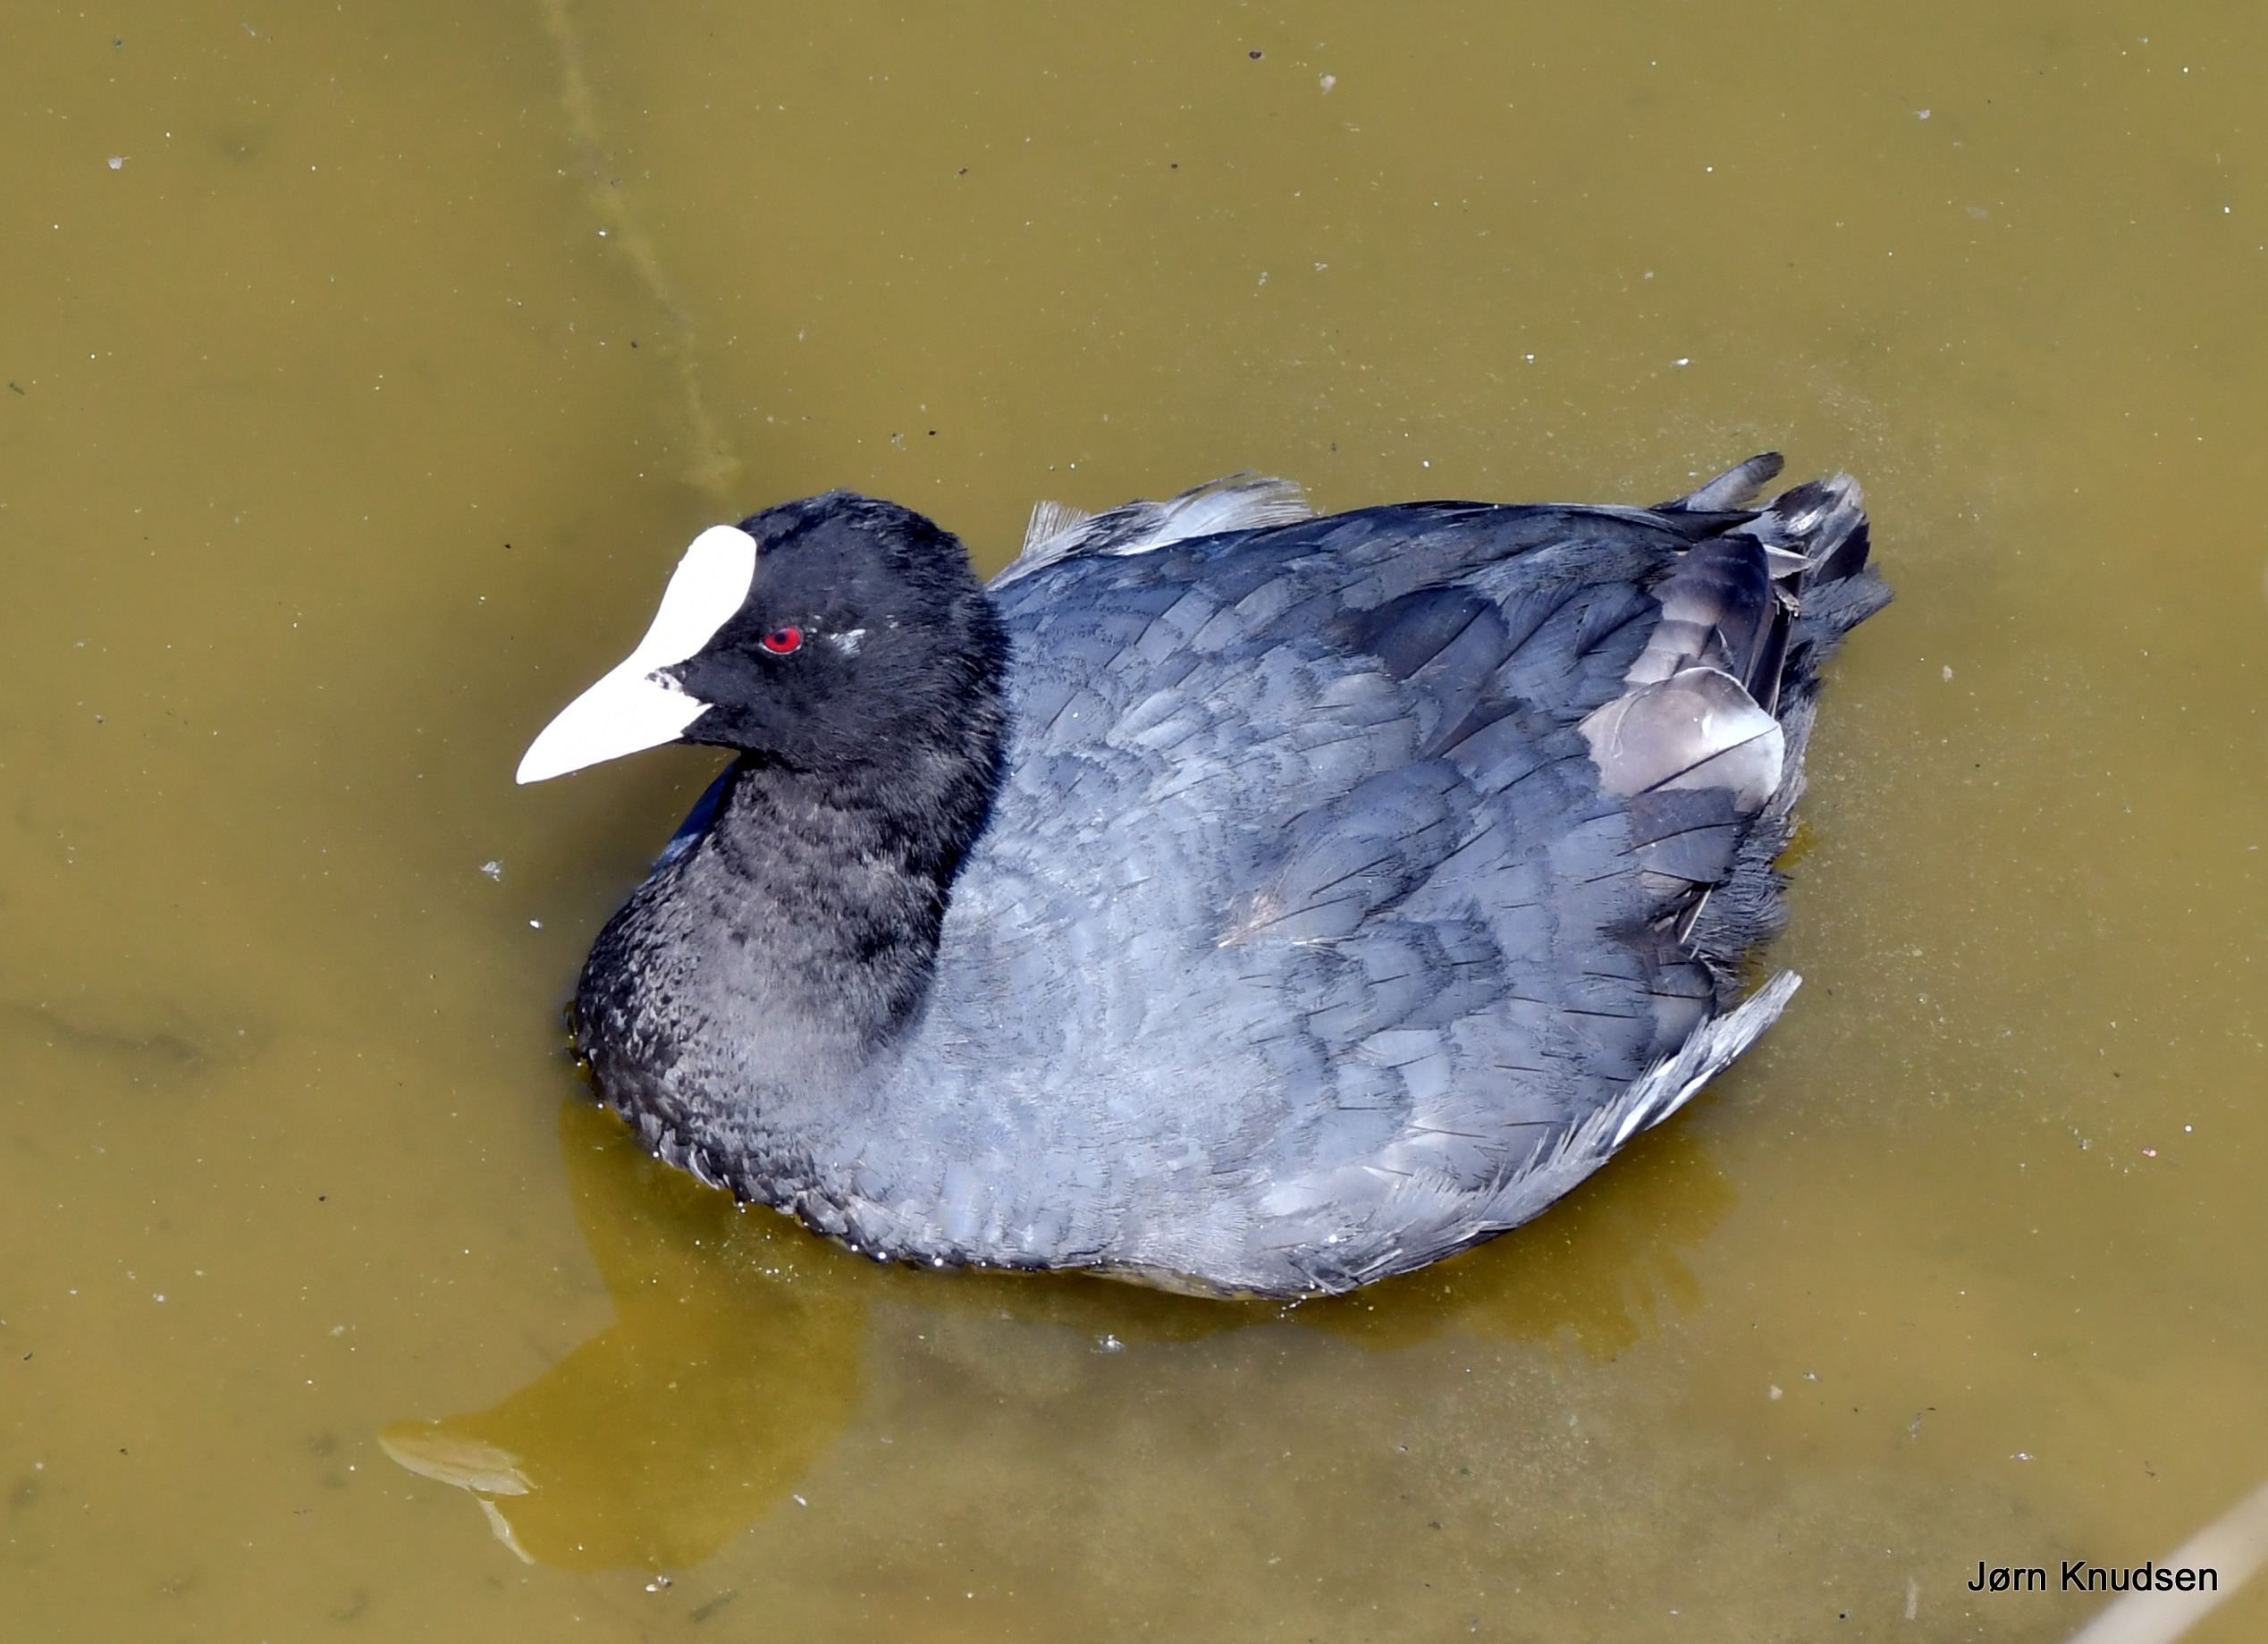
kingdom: Animalia
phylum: Chordata
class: Aves
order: Gruiformes
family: Rallidae
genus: Fulica
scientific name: Fulica atra
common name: Blishøne
